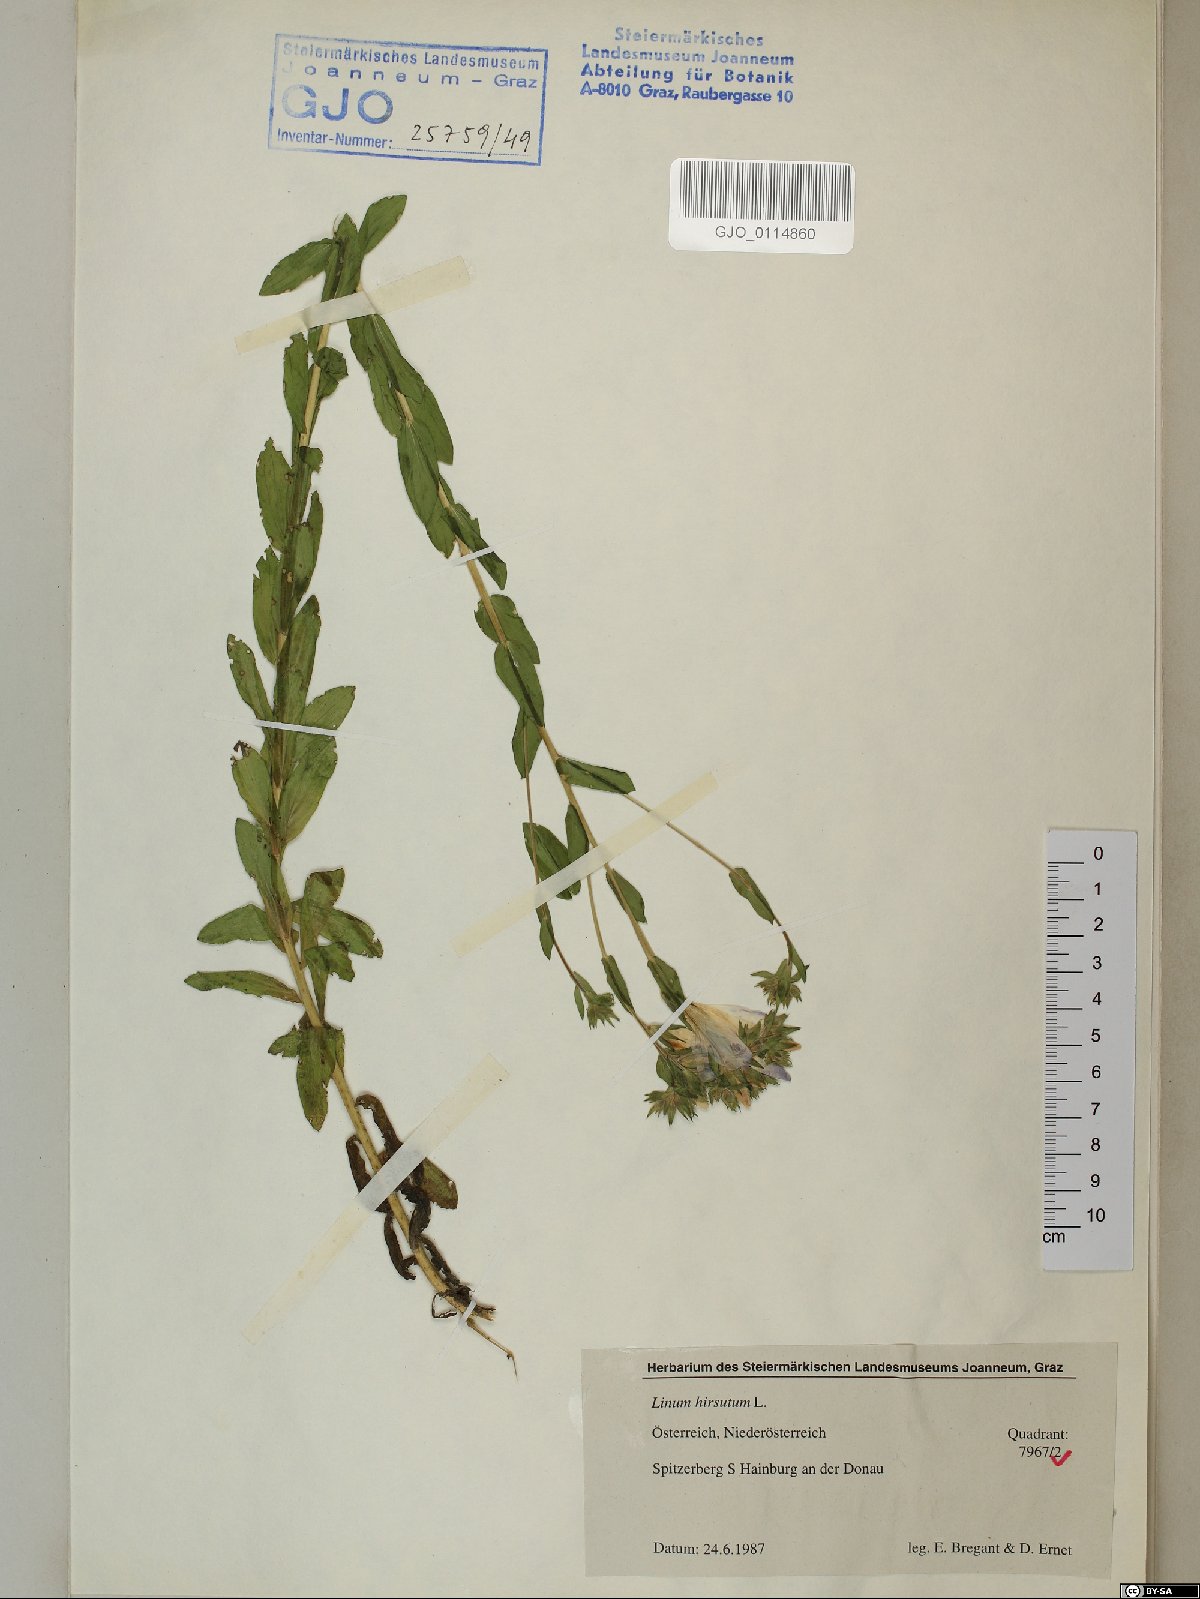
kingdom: Plantae
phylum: Tracheophyta
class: Magnoliopsida
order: Malpighiales
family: Linaceae
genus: Linum
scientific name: Linum hirsutum
